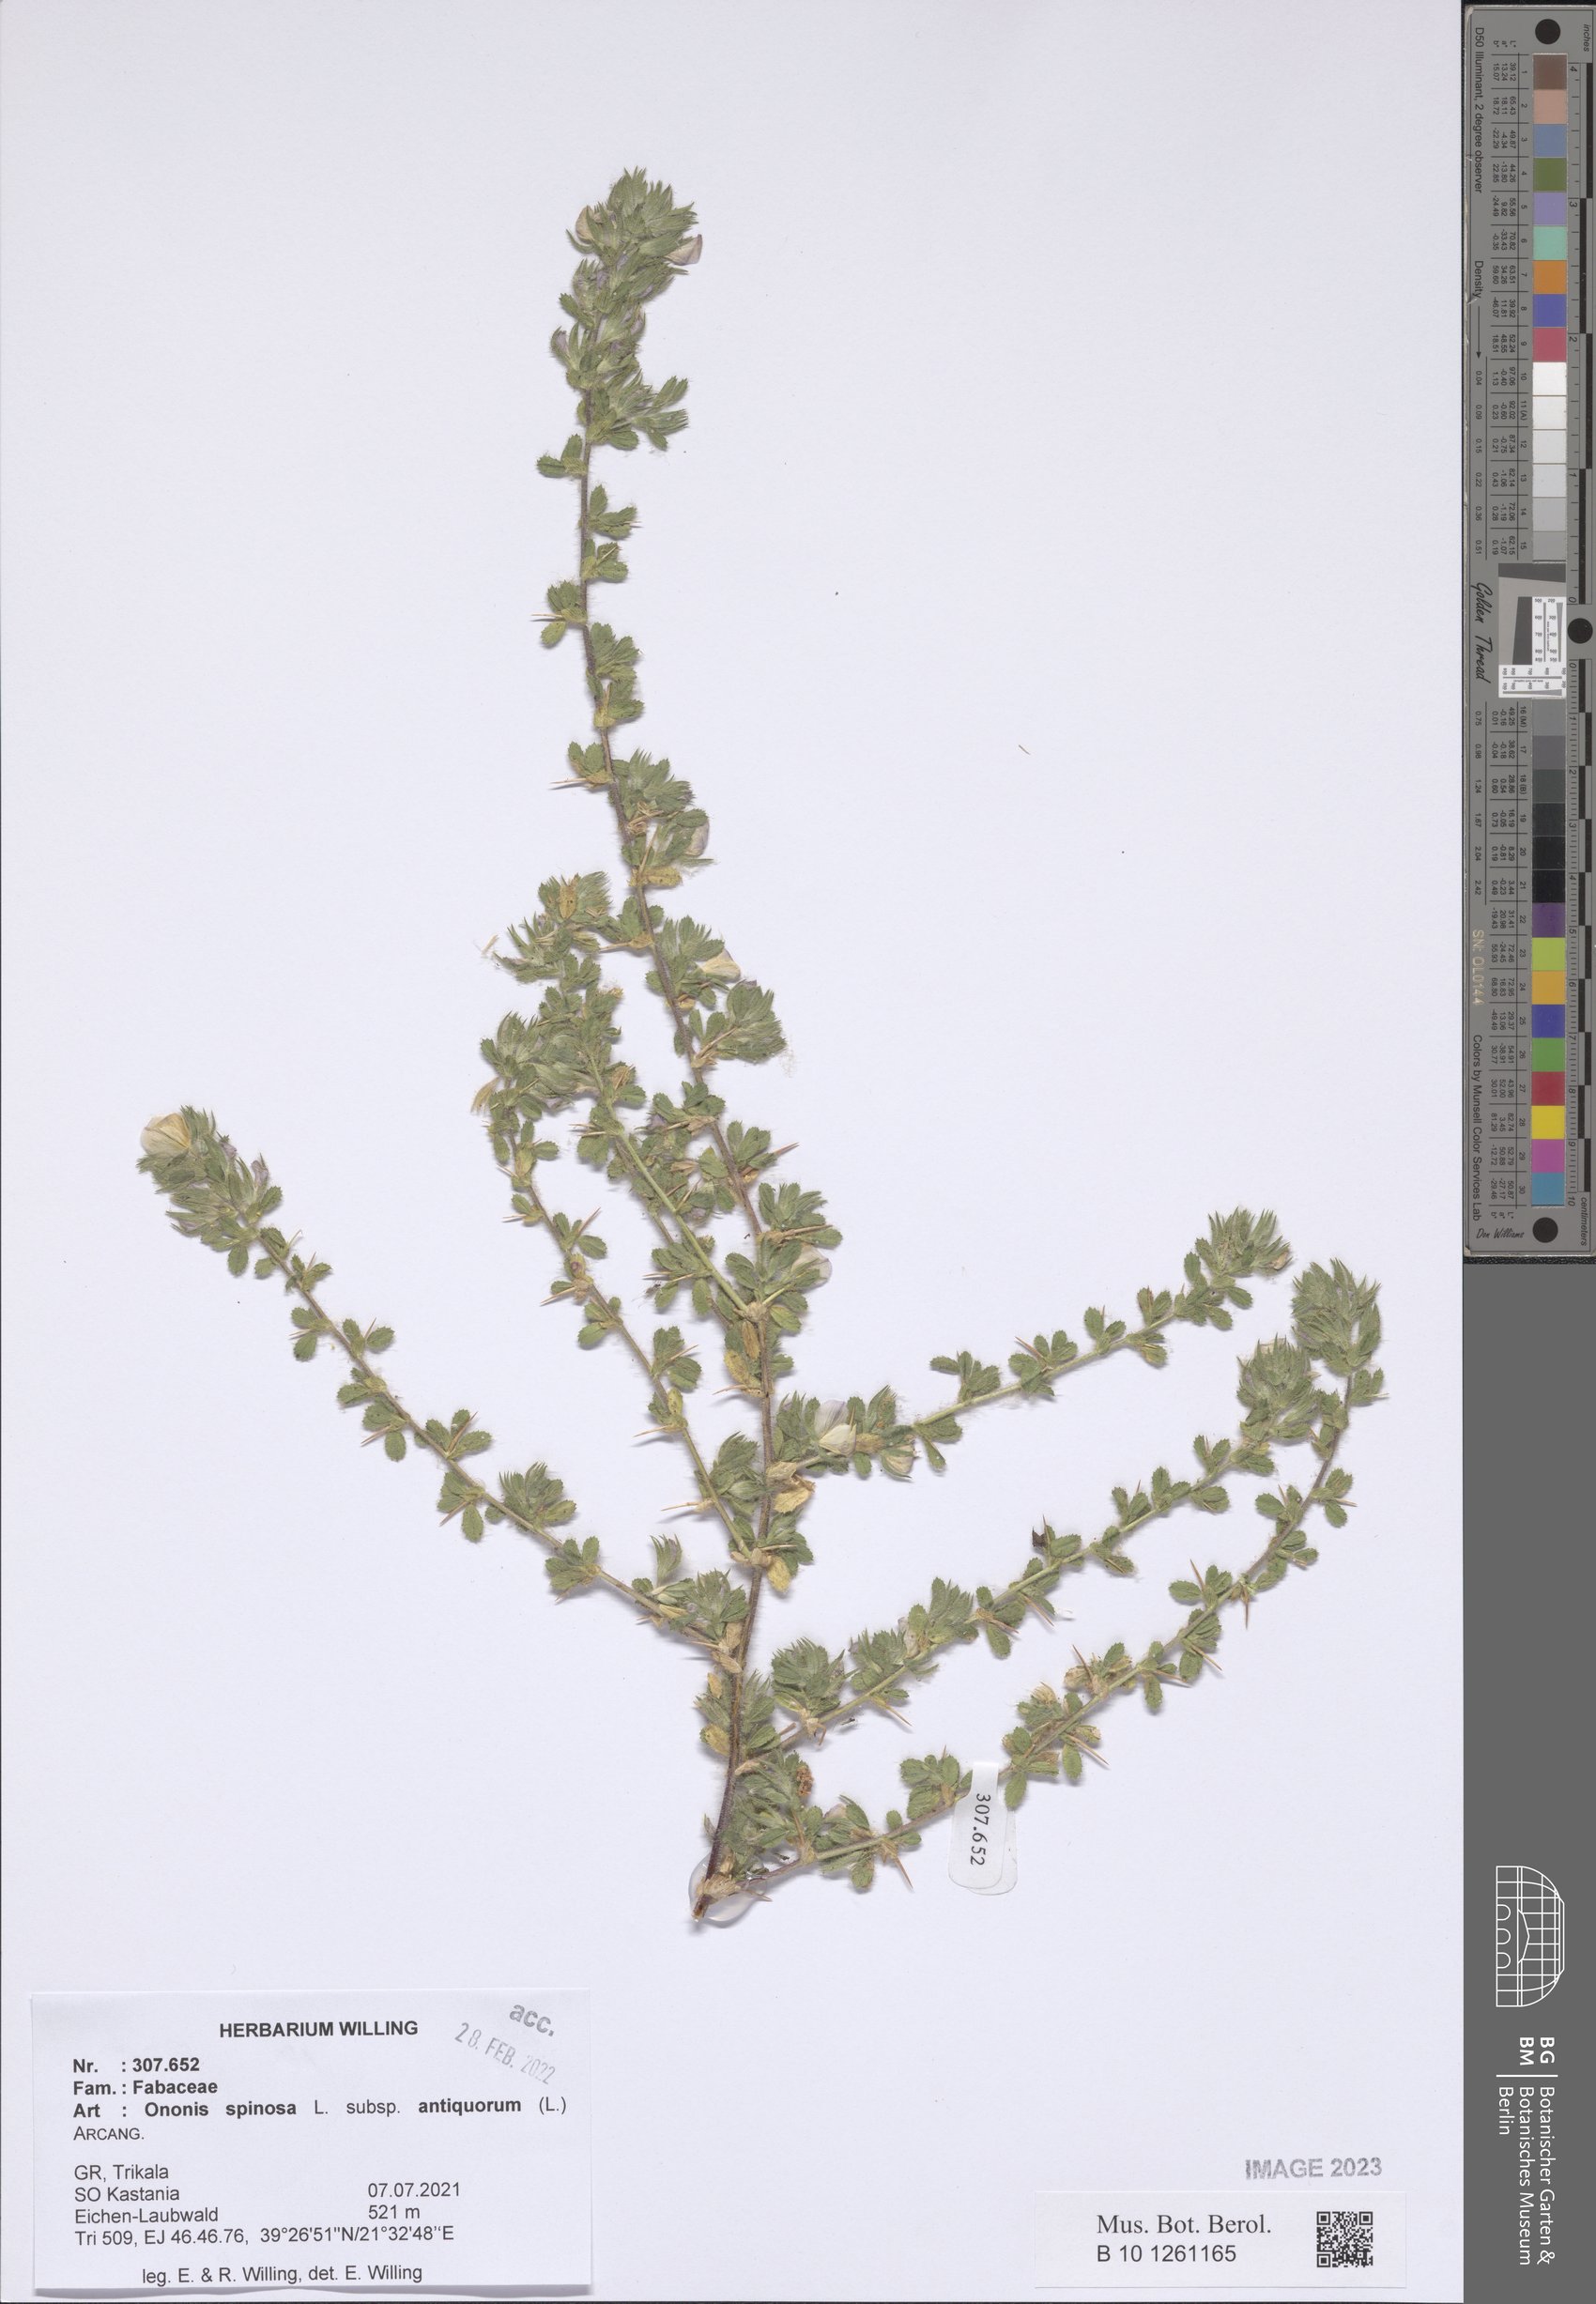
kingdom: Plantae
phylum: Tracheophyta
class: Magnoliopsida
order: Fabales
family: Fabaceae
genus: Ononis
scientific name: Ononis spinosa
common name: Spiny restharrow
